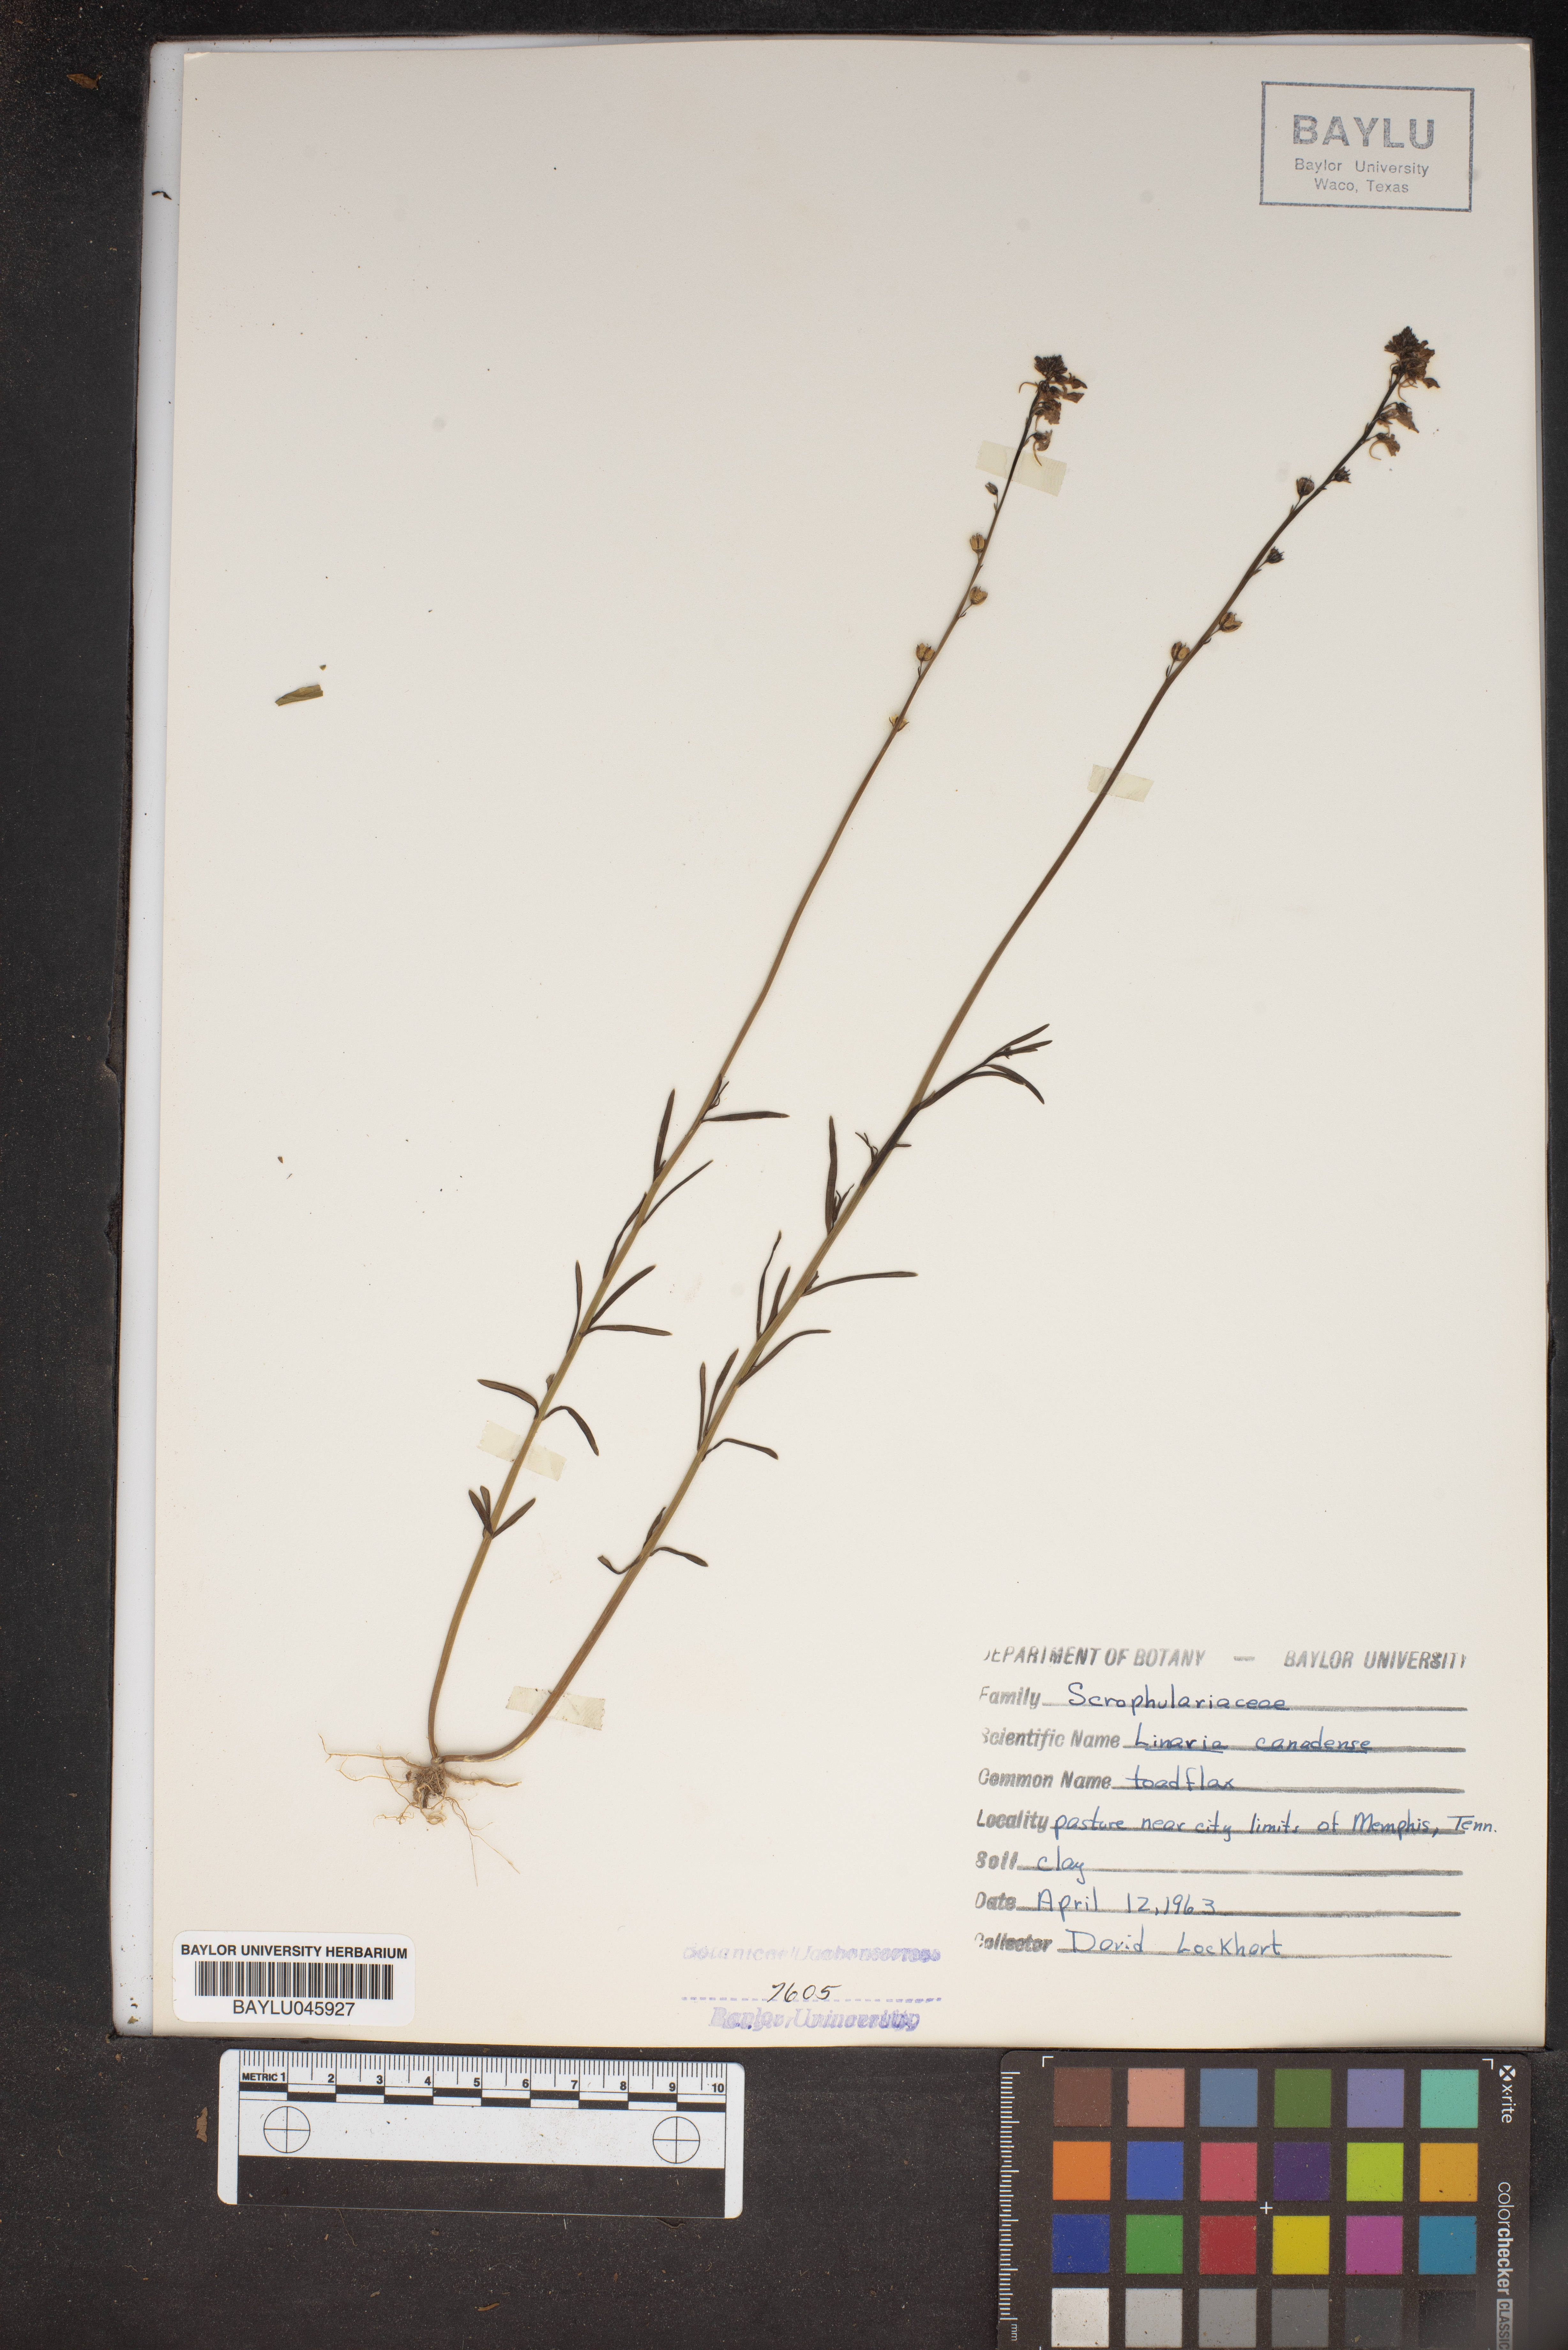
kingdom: Plantae
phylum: Tracheophyta
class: Magnoliopsida
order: Lamiales
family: Plantaginaceae
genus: Nuttallanthus
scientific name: Nuttallanthus canadensis
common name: Blue toadflax
